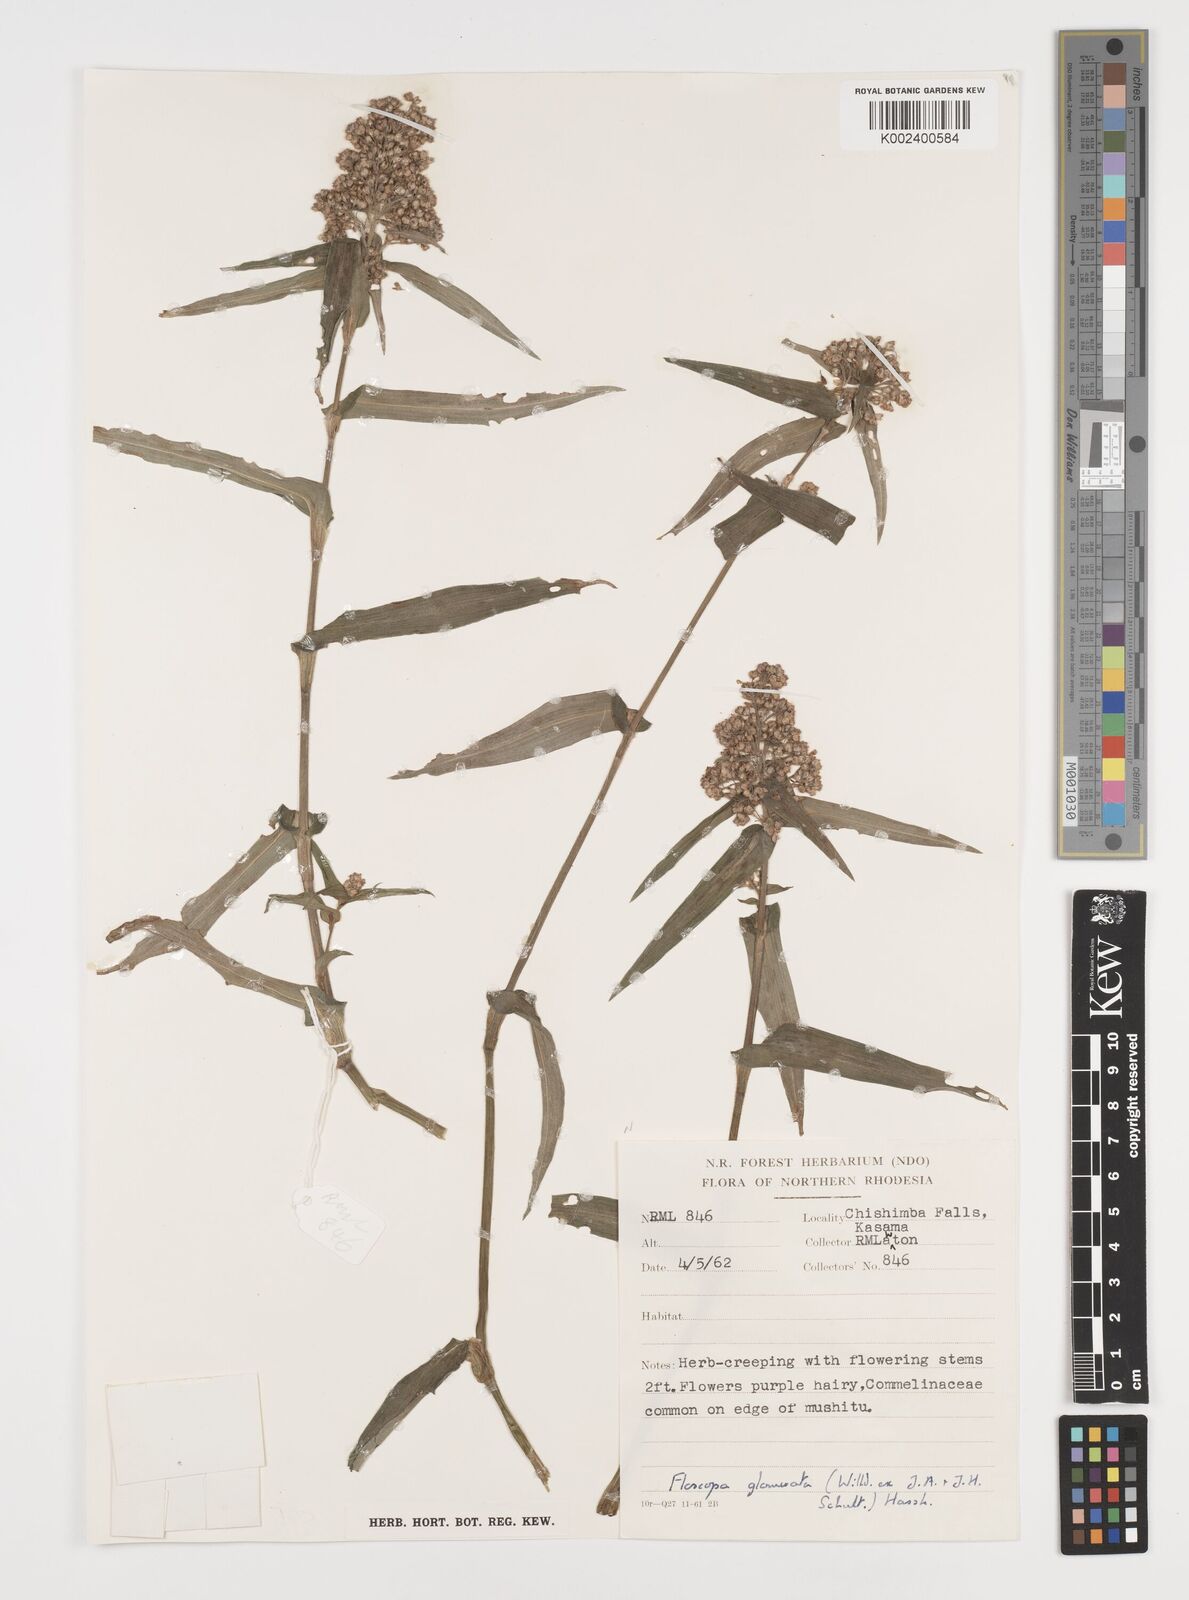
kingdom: Plantae
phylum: Tracheophyta
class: Liliopsida
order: Commelinales
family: Commelinaceae
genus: Floscopa
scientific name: Floscopa glomerata
